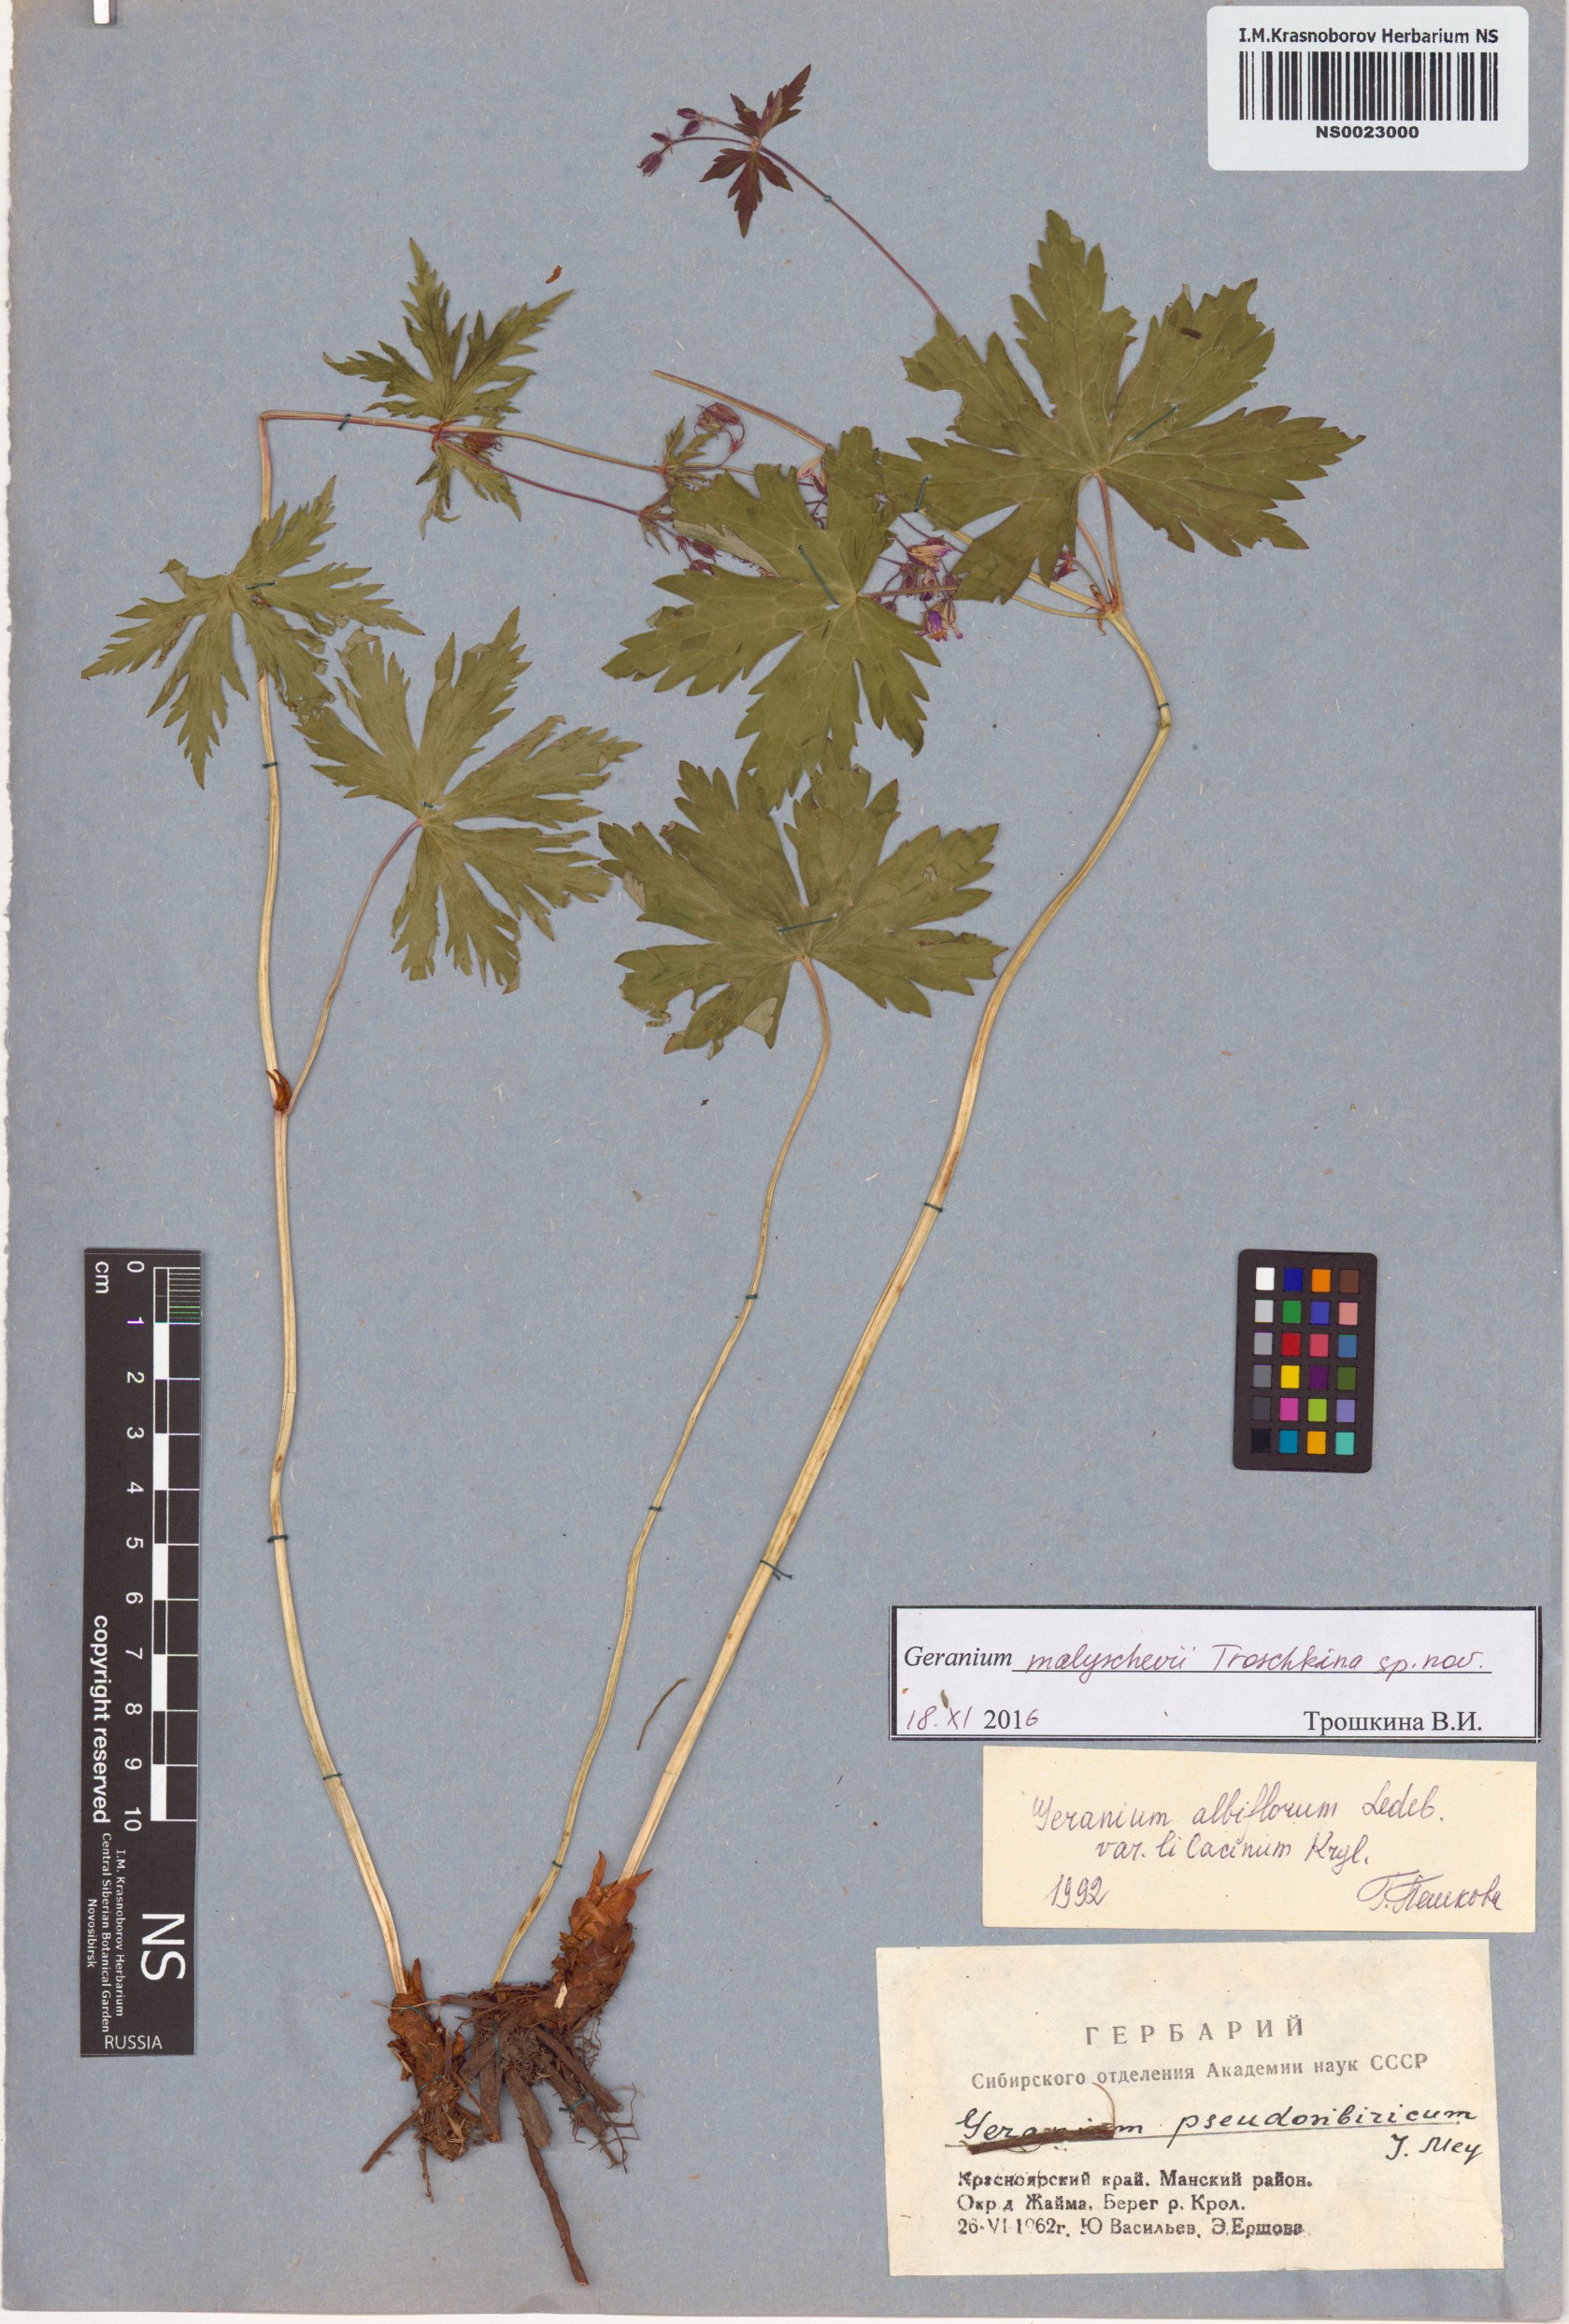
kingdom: Plantae
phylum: Tracheophyta
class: Magnoliopsida
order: Geraniales
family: Geraniaceae
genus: Geranium
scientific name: Geranium malyschevii
